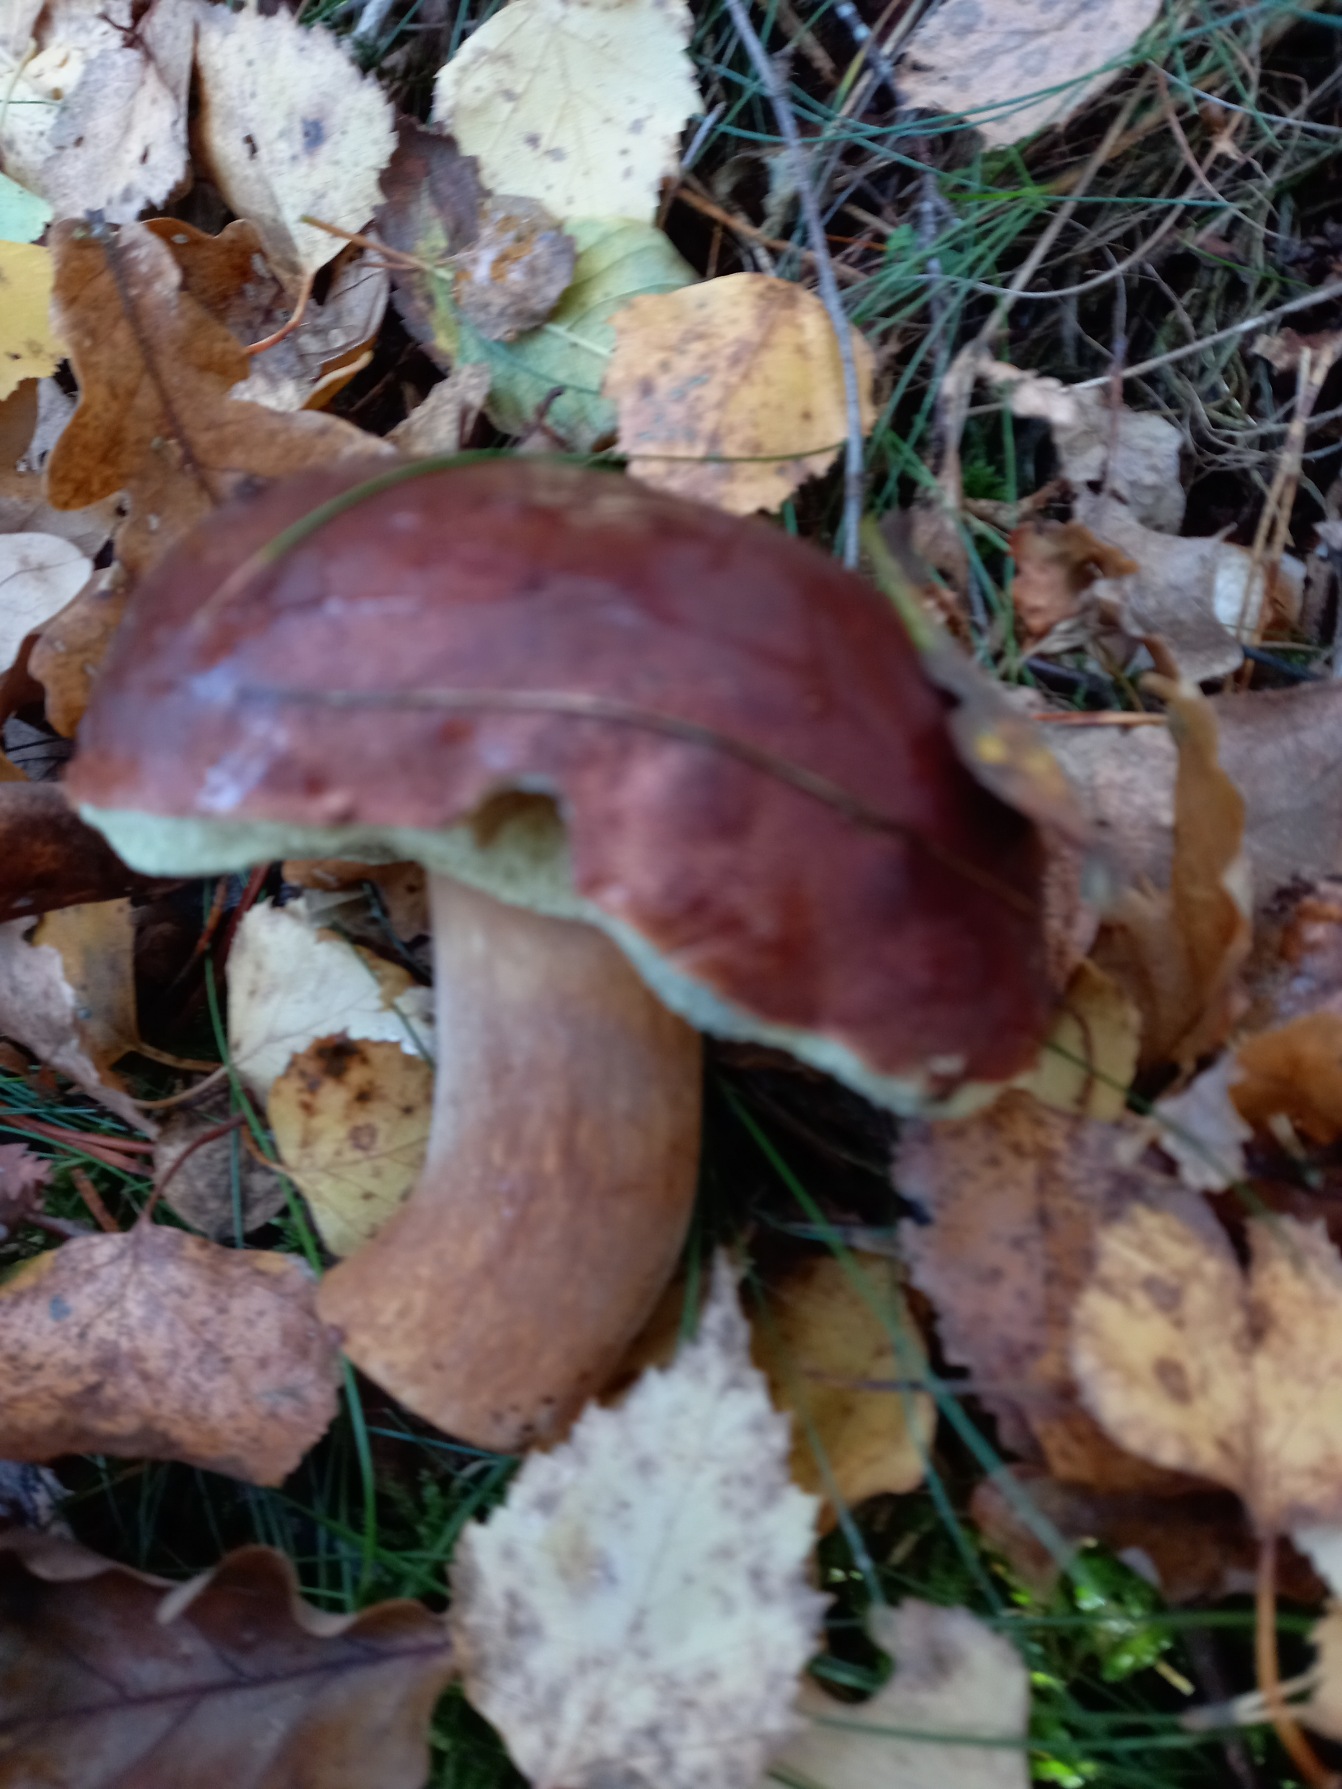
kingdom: Fungi
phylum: Basidiomycota
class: Agaricomycetes
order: Boletales
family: Boletaceae
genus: Imleria
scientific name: Imleria badia
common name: Brunstokket rørhat
